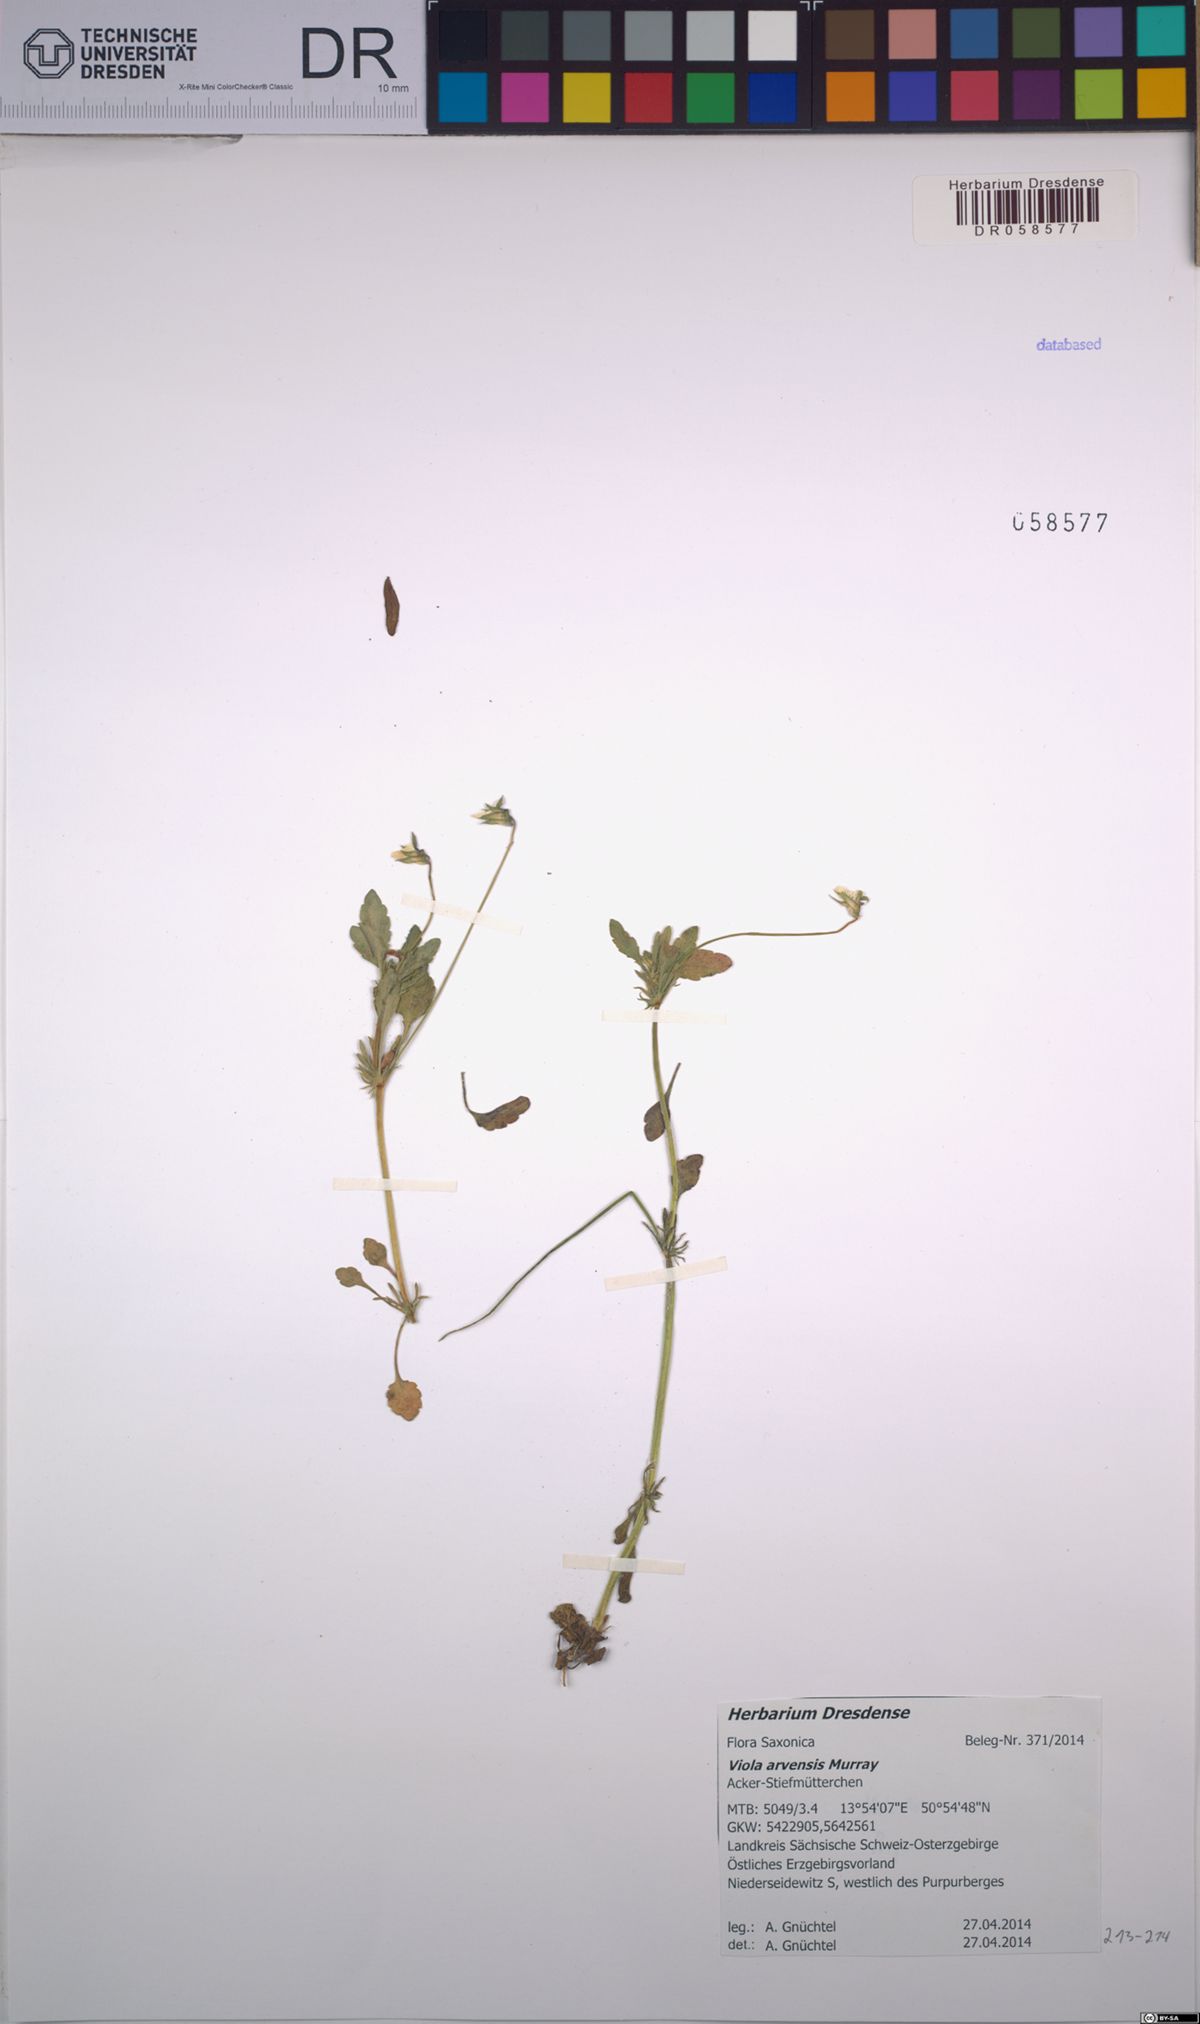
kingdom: Plantae
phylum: Tracheophyta
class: Magnoliopsida
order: Malpighiales
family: Violaceae
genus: Viola
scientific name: Viola arvensis
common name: Field pansy
